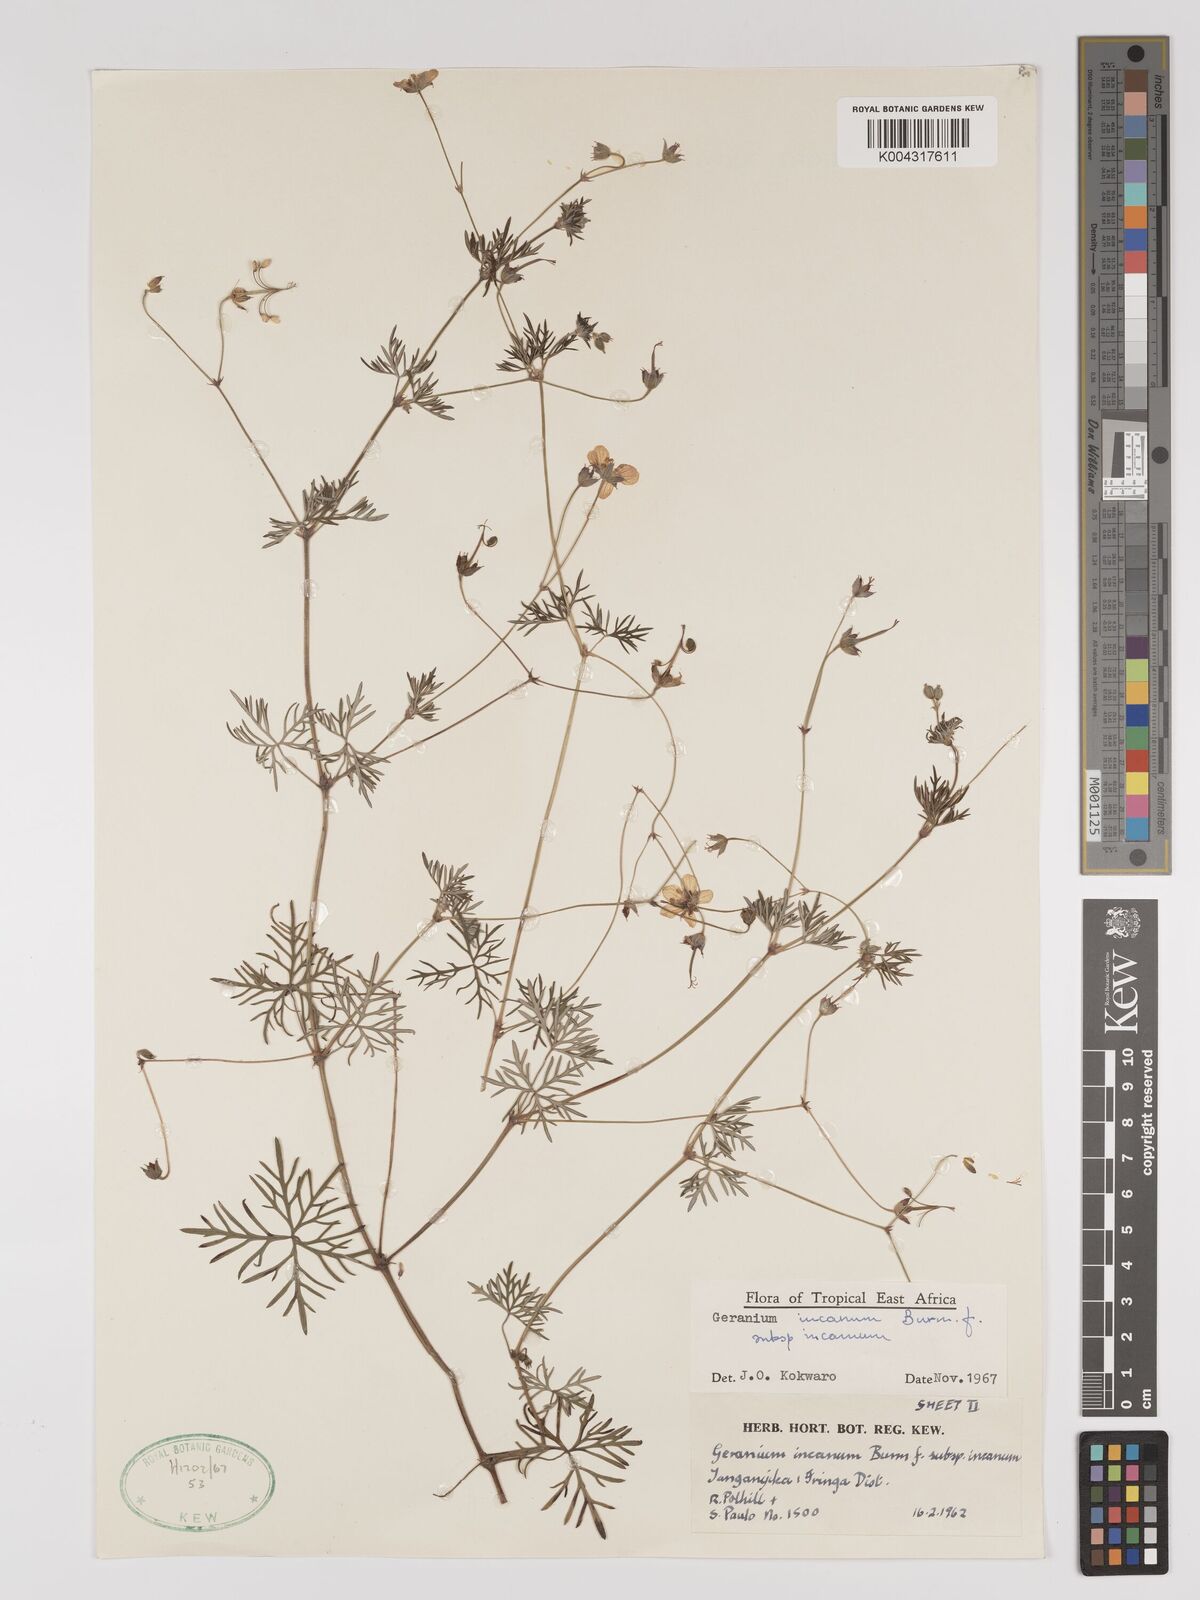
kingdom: Plantae
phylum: Tracheophyta
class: Magnoliopsida
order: Geraniales
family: Geraniaceae
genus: Geranium
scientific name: Geranium incanum
